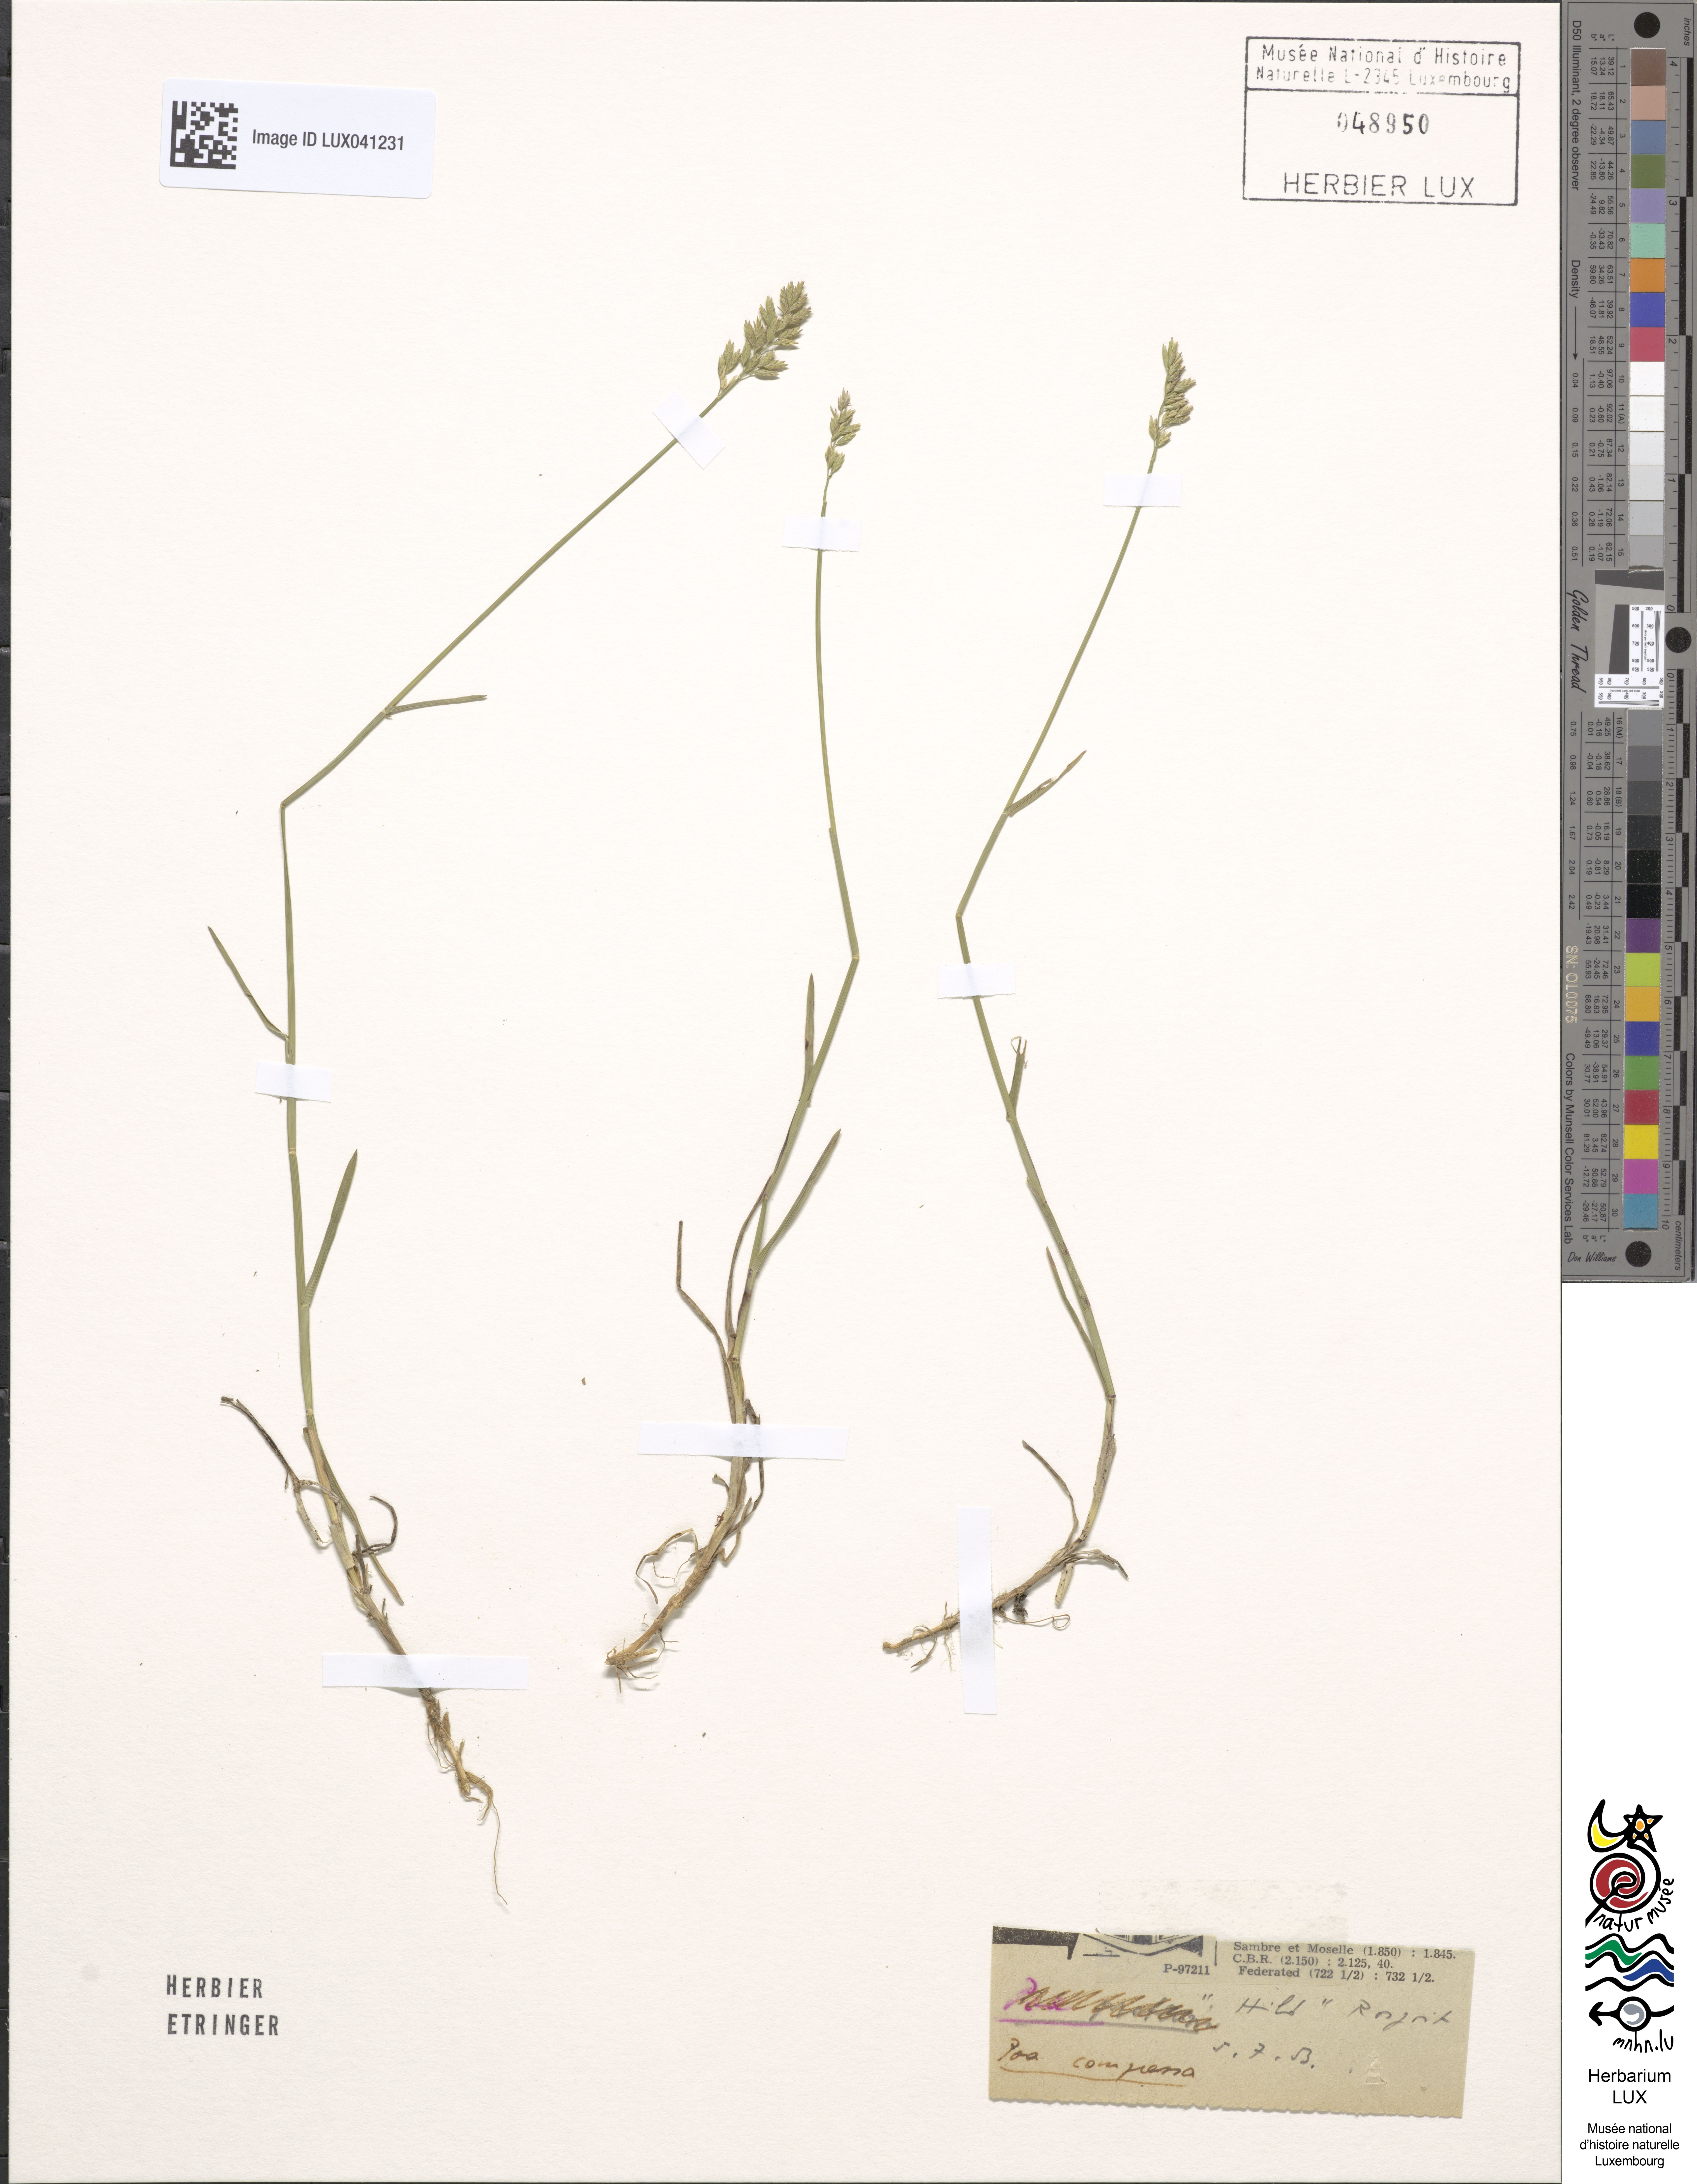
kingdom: Plantae
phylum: Tracheophyta
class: Liliopsida
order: Poales
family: Poaceae
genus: Poa
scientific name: Poa compressa
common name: Canada bluegrass
